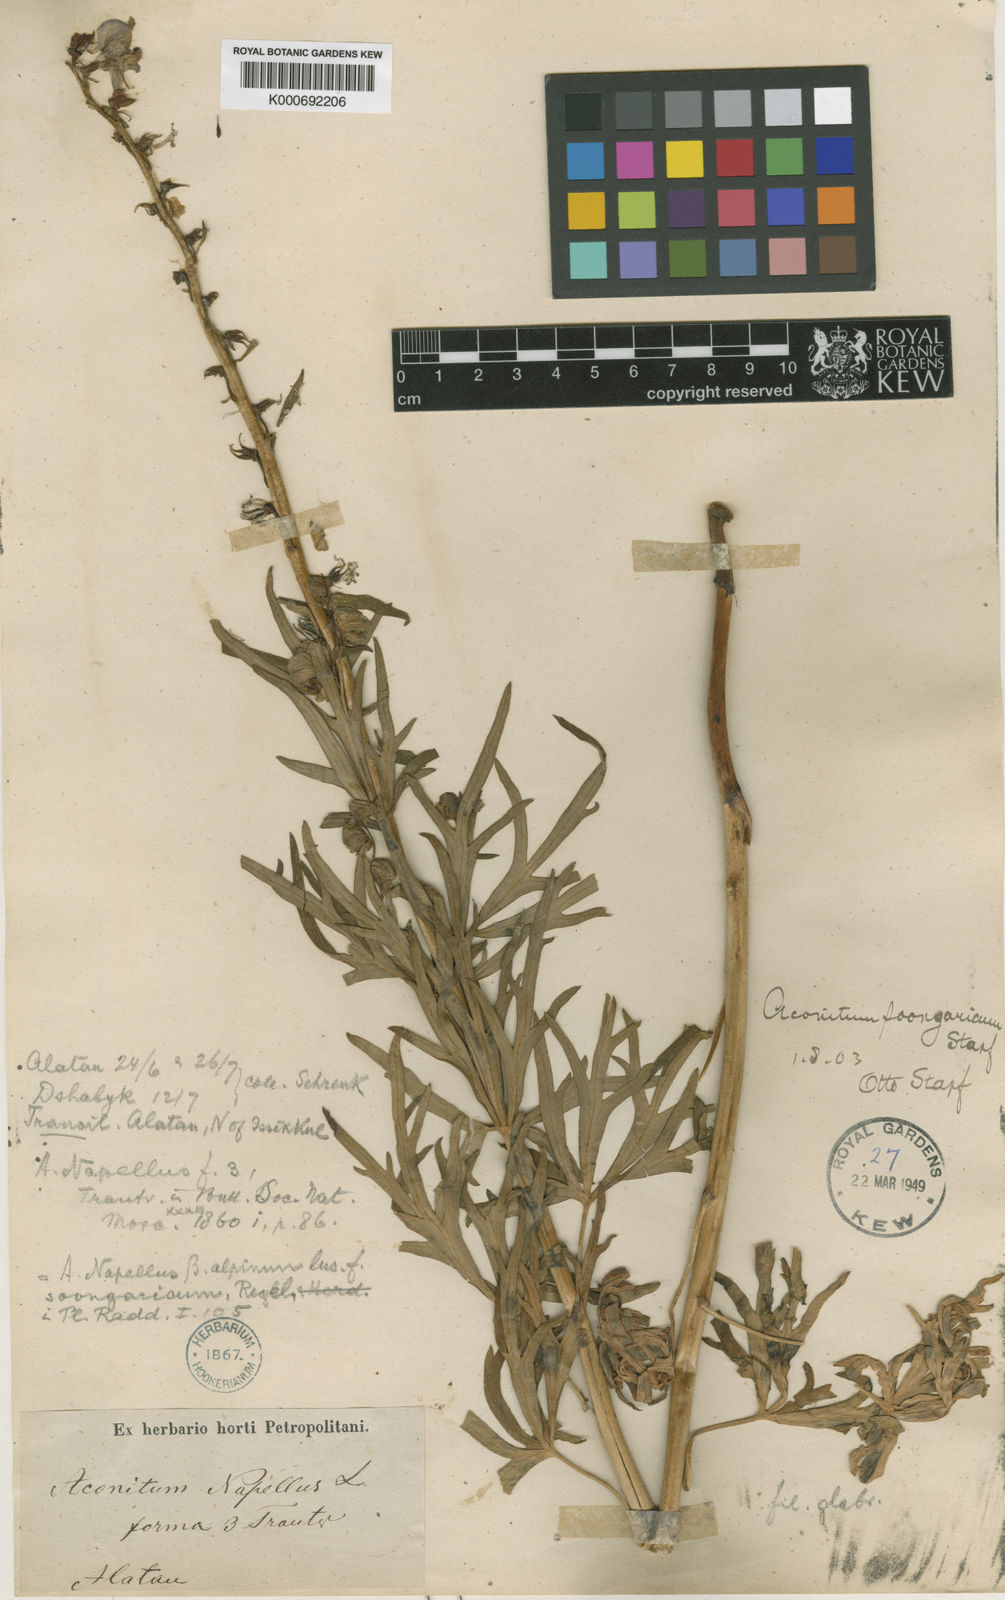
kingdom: Plantae
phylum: Tracheophyta
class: Magnoliopsida
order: Ranunculales
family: Ranunculaceae
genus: Aconitum
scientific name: Aconitum soongaricum
